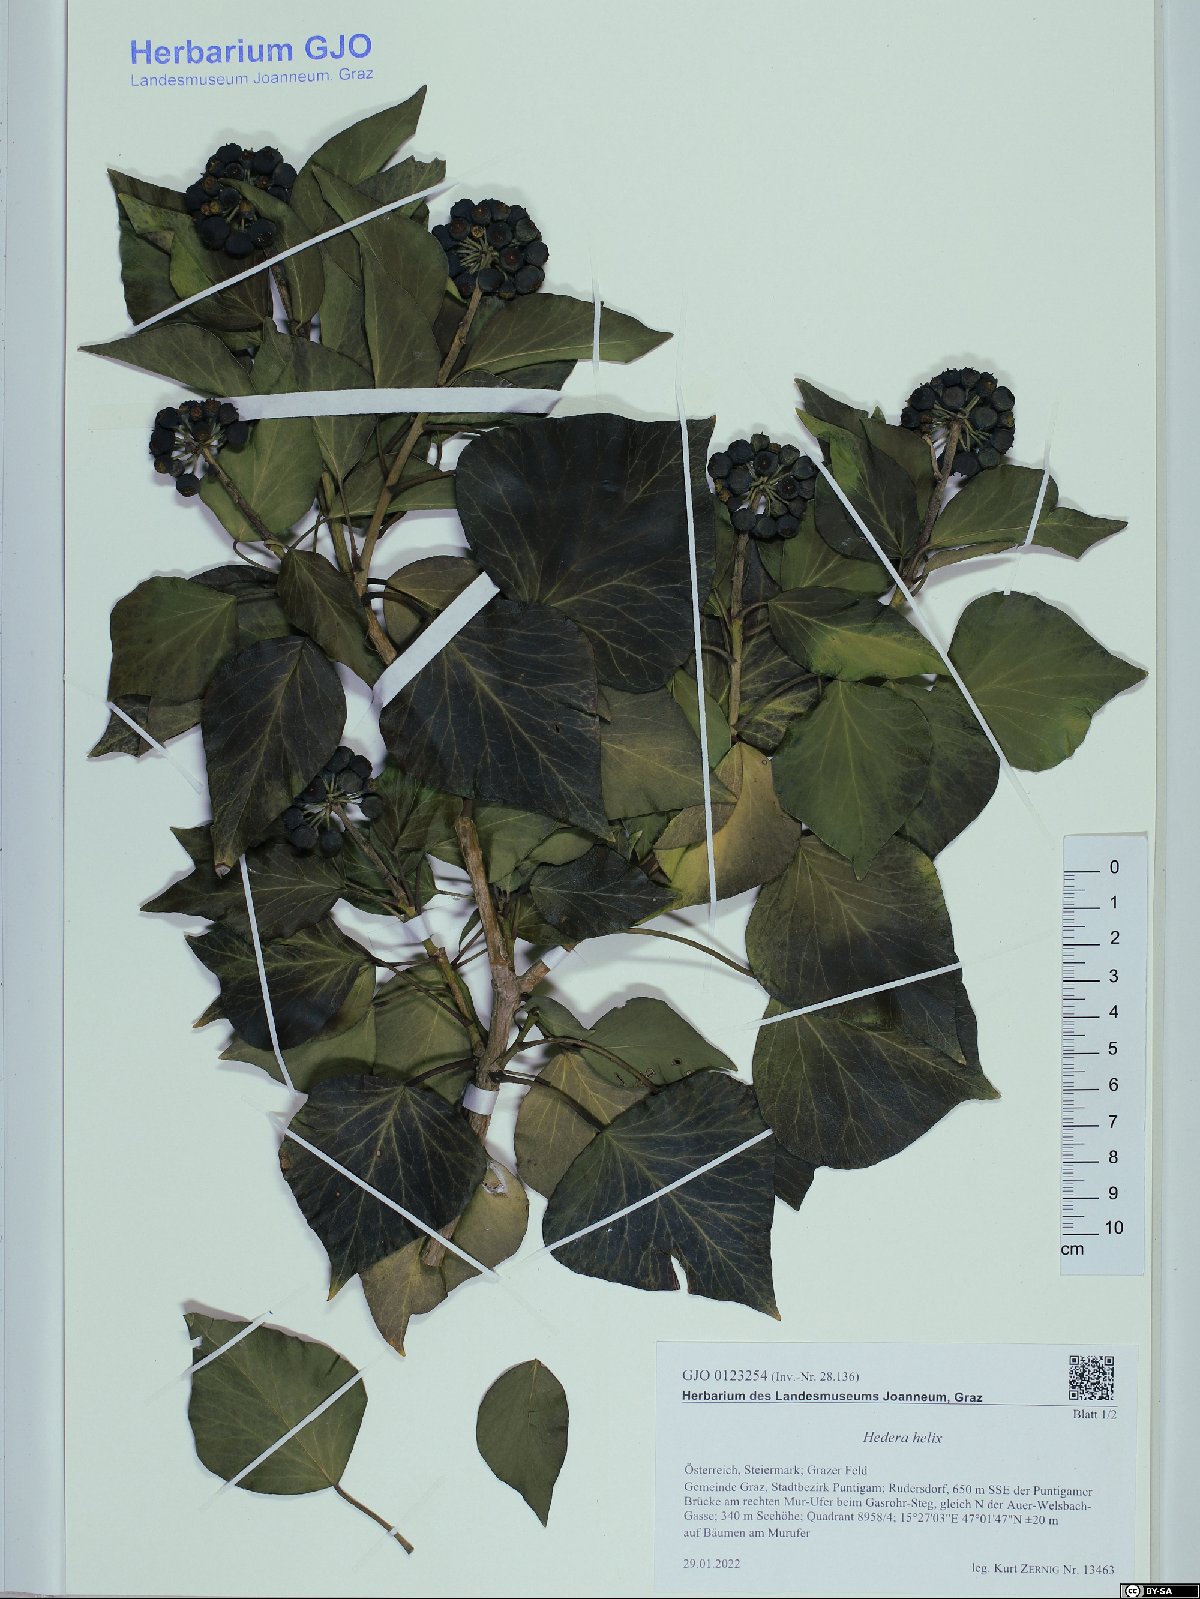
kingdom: Plantae
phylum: Tracheophyta
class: Magnoliopsida
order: Apiales
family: Araliaceae
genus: Hedera
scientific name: Hedera helix
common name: Ivy
